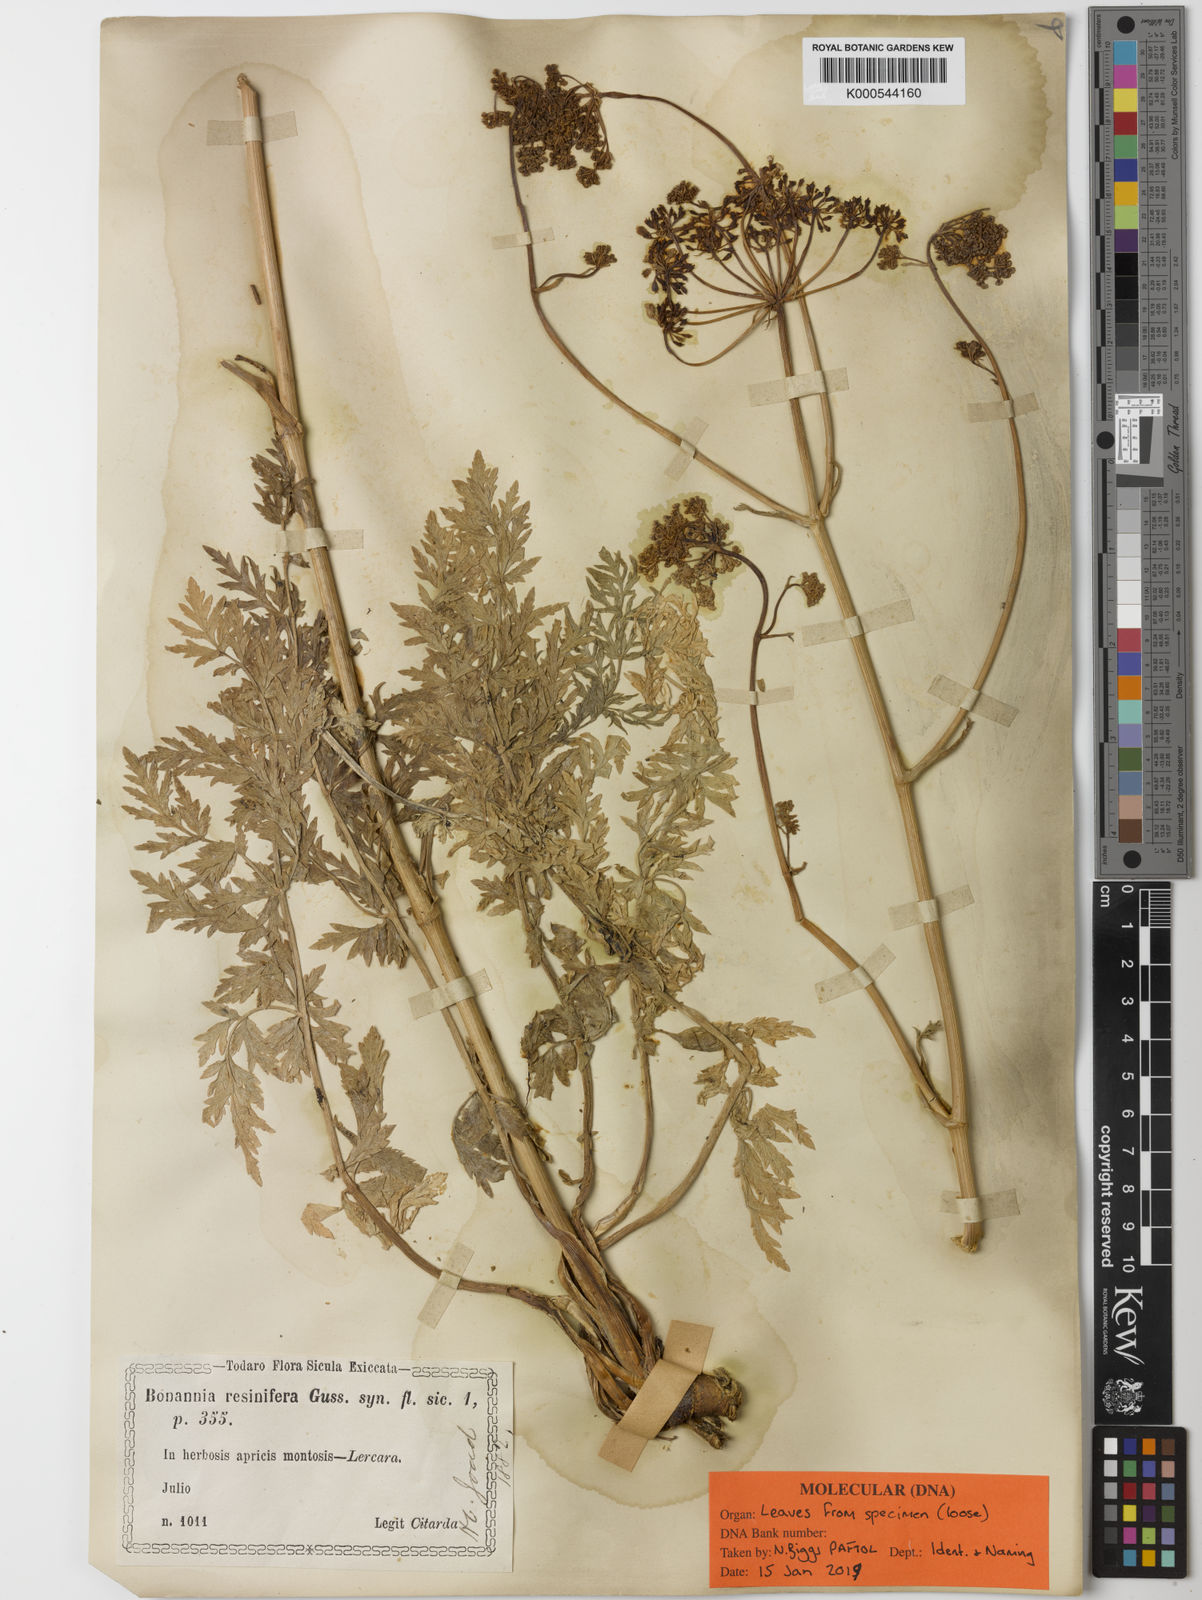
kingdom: Plantae
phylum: Tracheophyta
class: Magnoliopsida
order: Apiales
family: Apiaceae
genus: Bonannia
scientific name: Bonannia graeca
